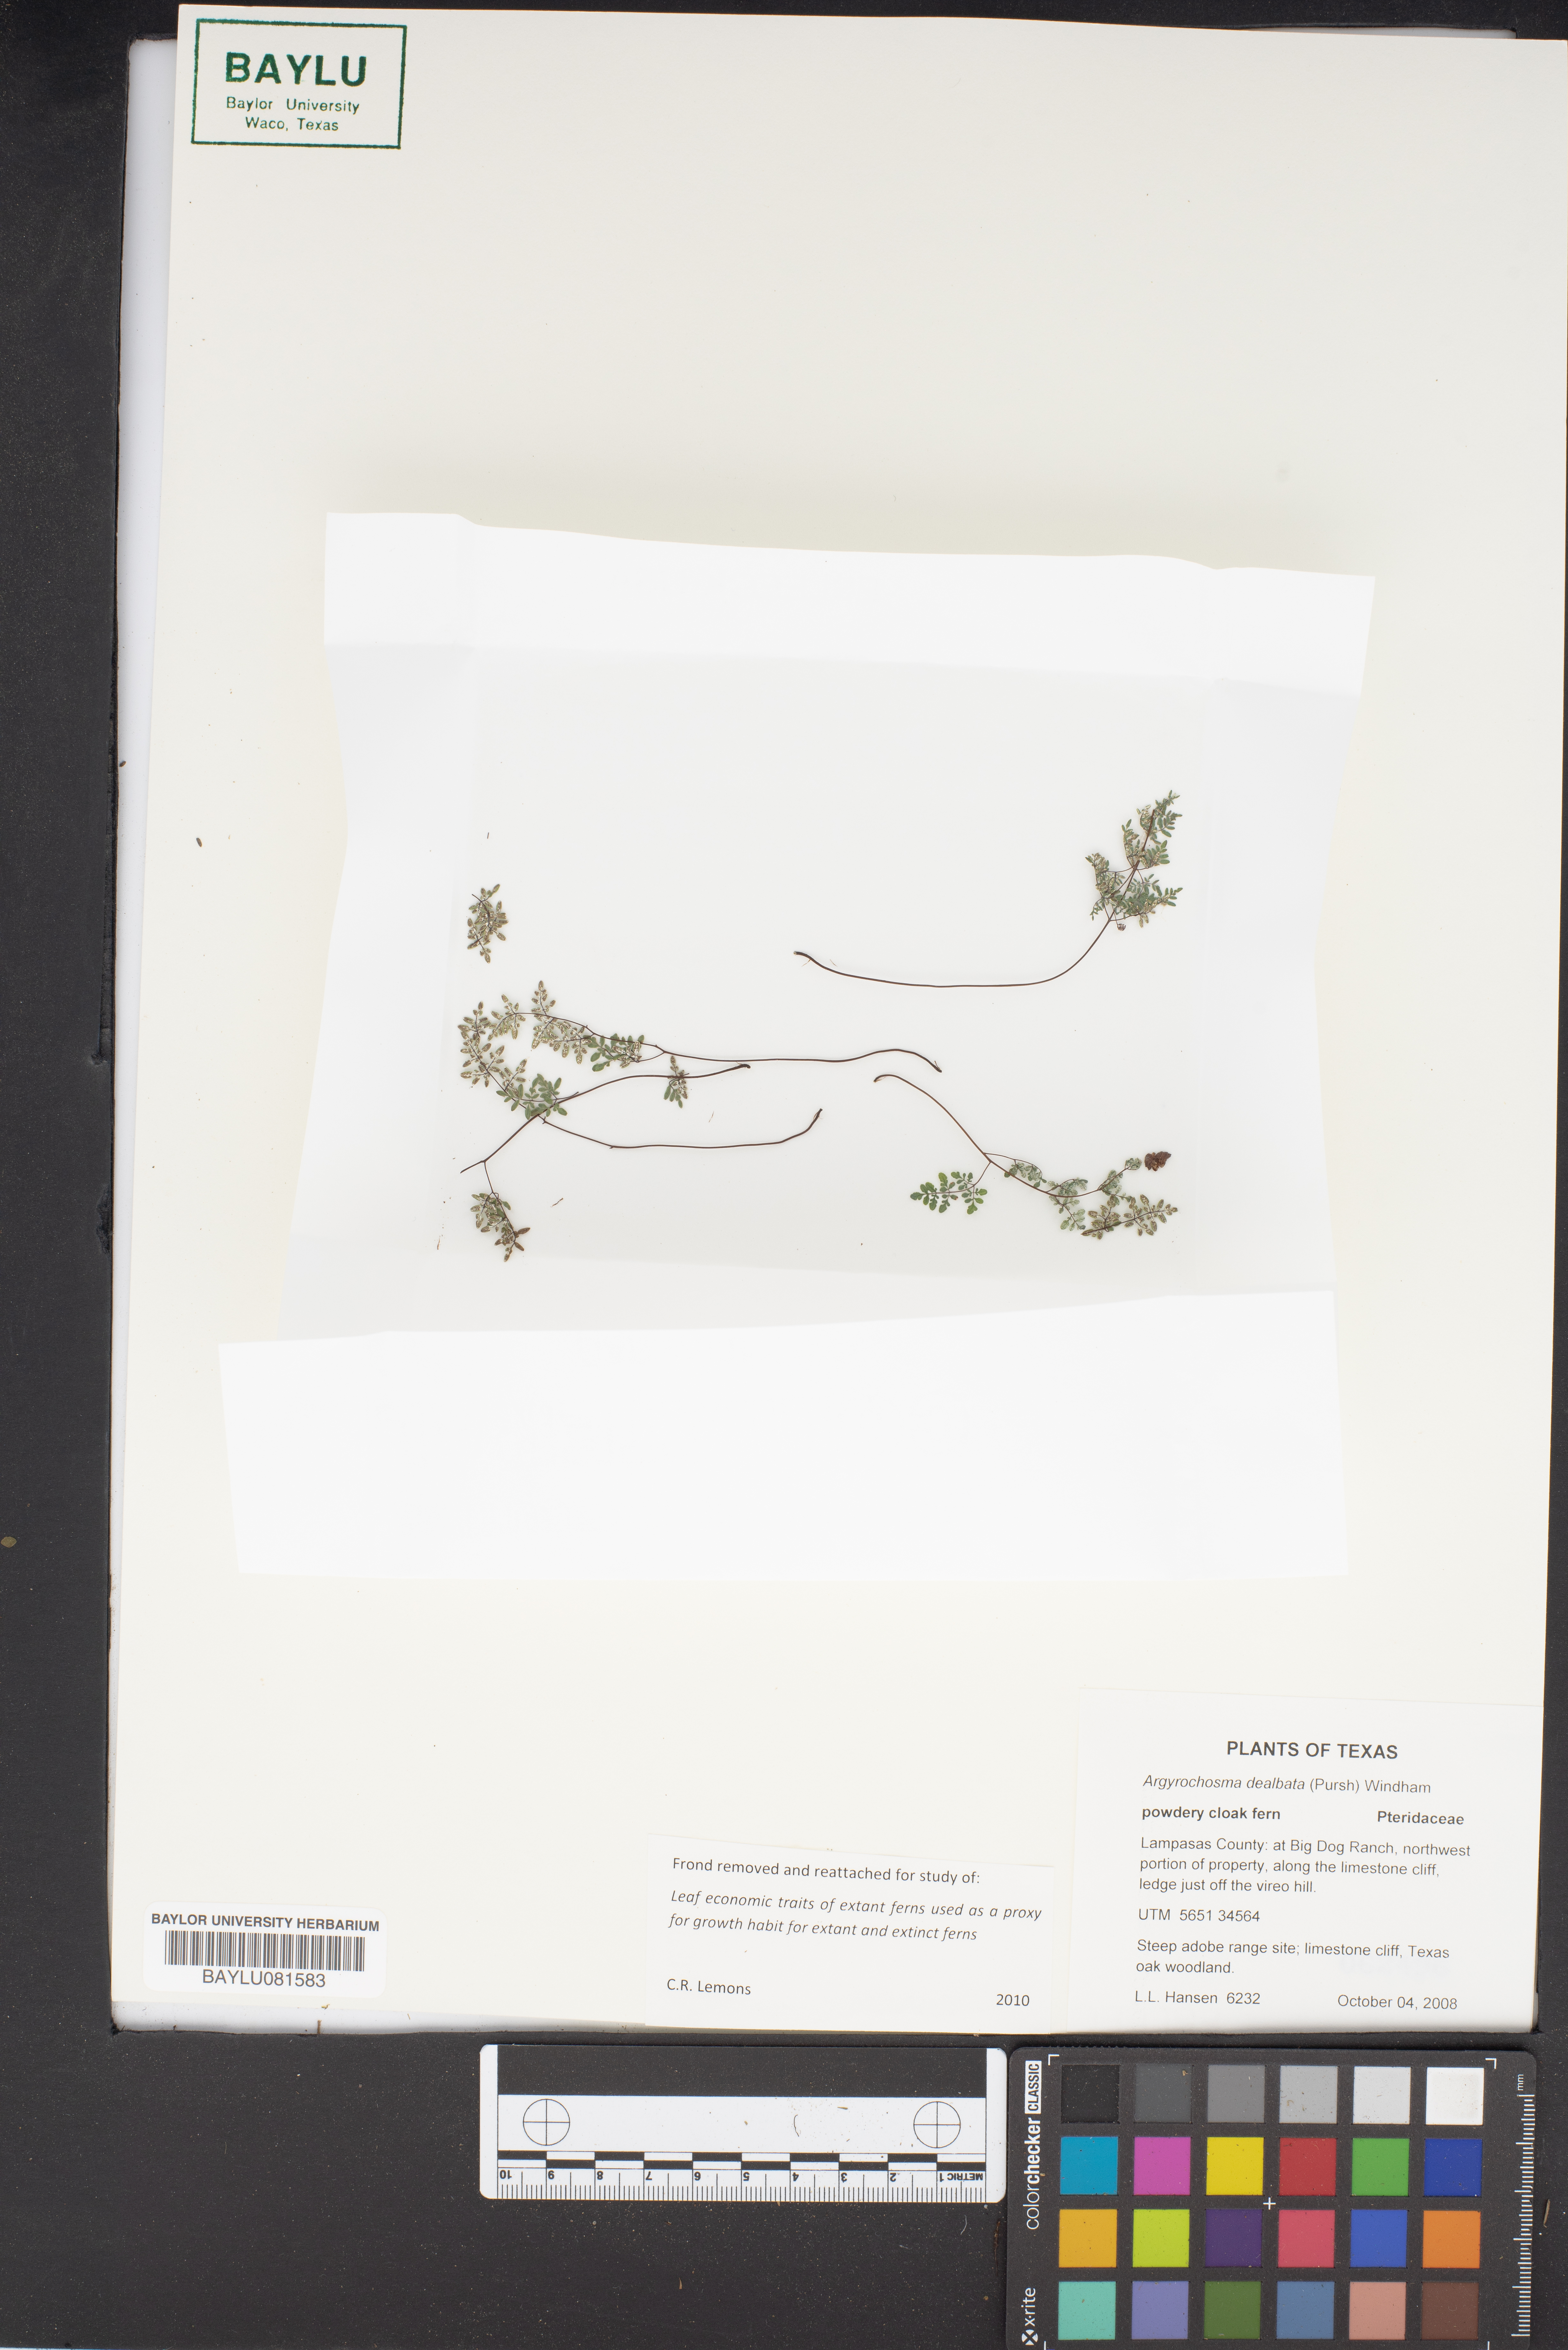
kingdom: Plantae
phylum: Tracheophyta
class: Polypodiopsida
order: Polypodiales
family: Pteridaceae
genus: Argyrochosma
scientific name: Argyrochosma dealbata
